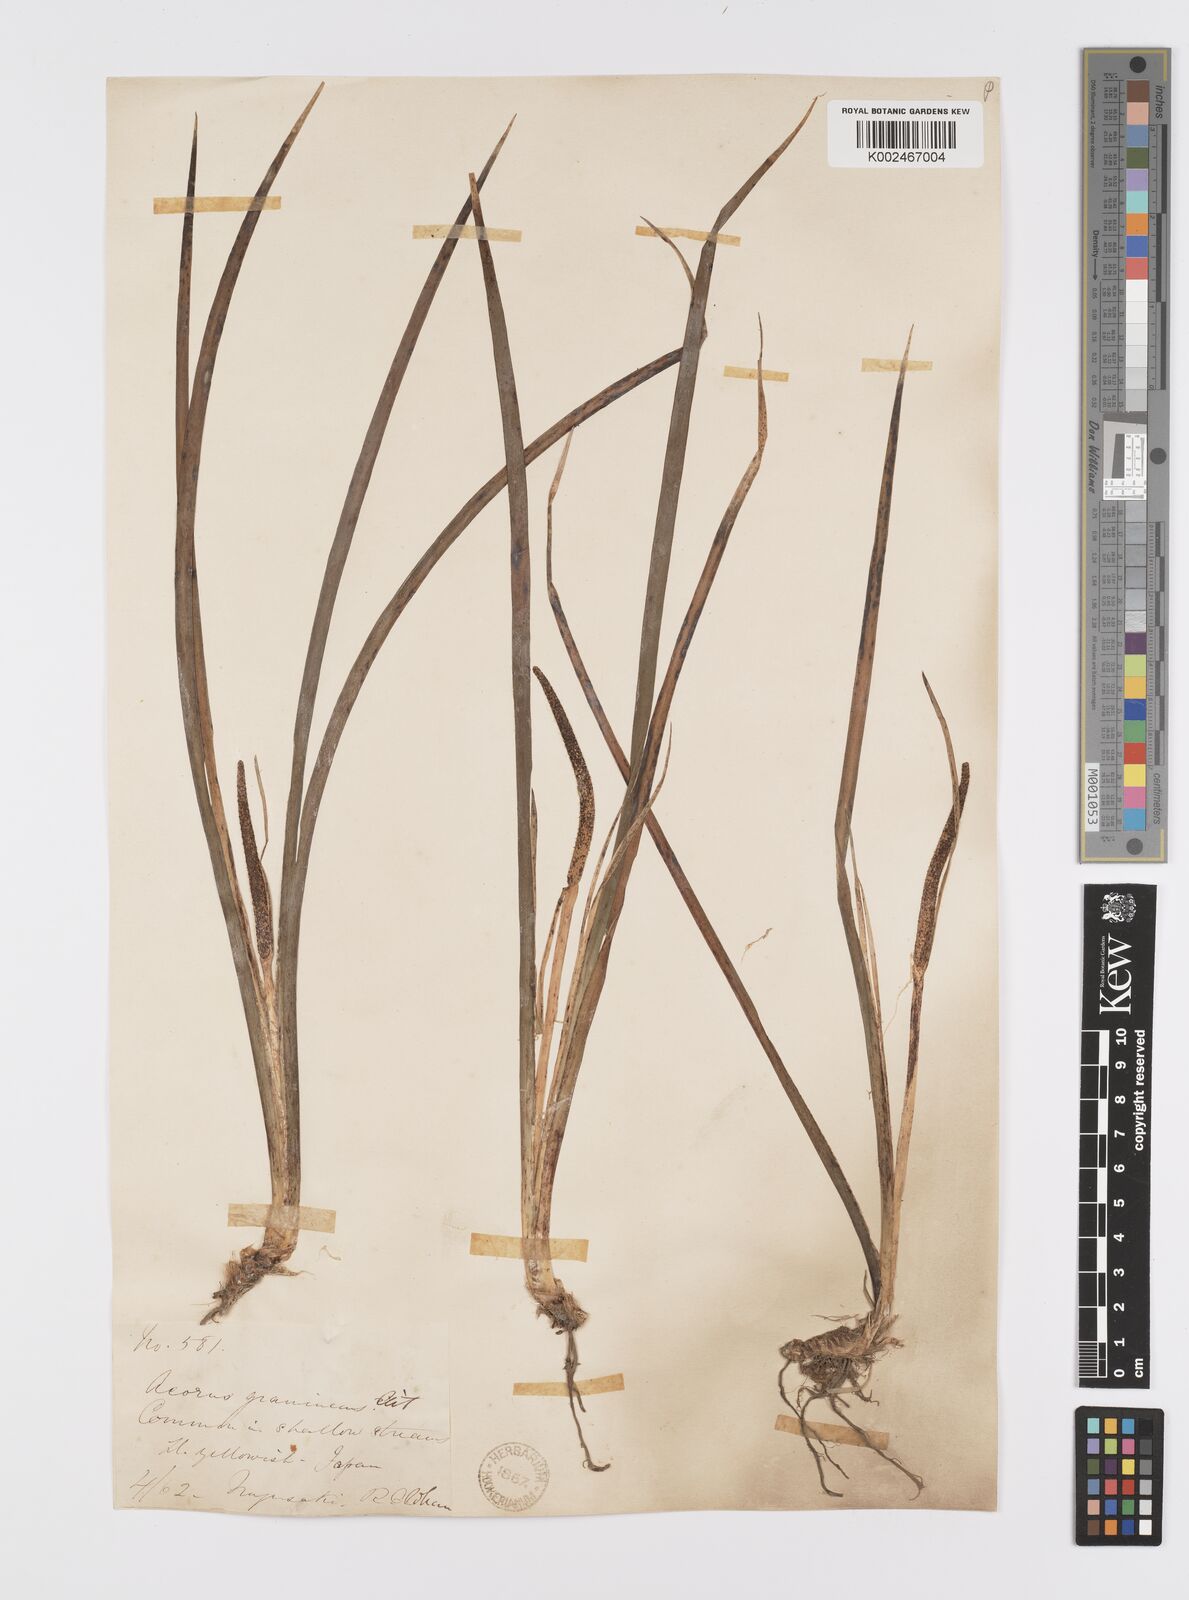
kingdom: Plantae
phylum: Tracheophyta
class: Liliopsida
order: Acorales
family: Acoraceae
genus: Acorus
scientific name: Acorus gramineus
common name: Slender sweet-flag
